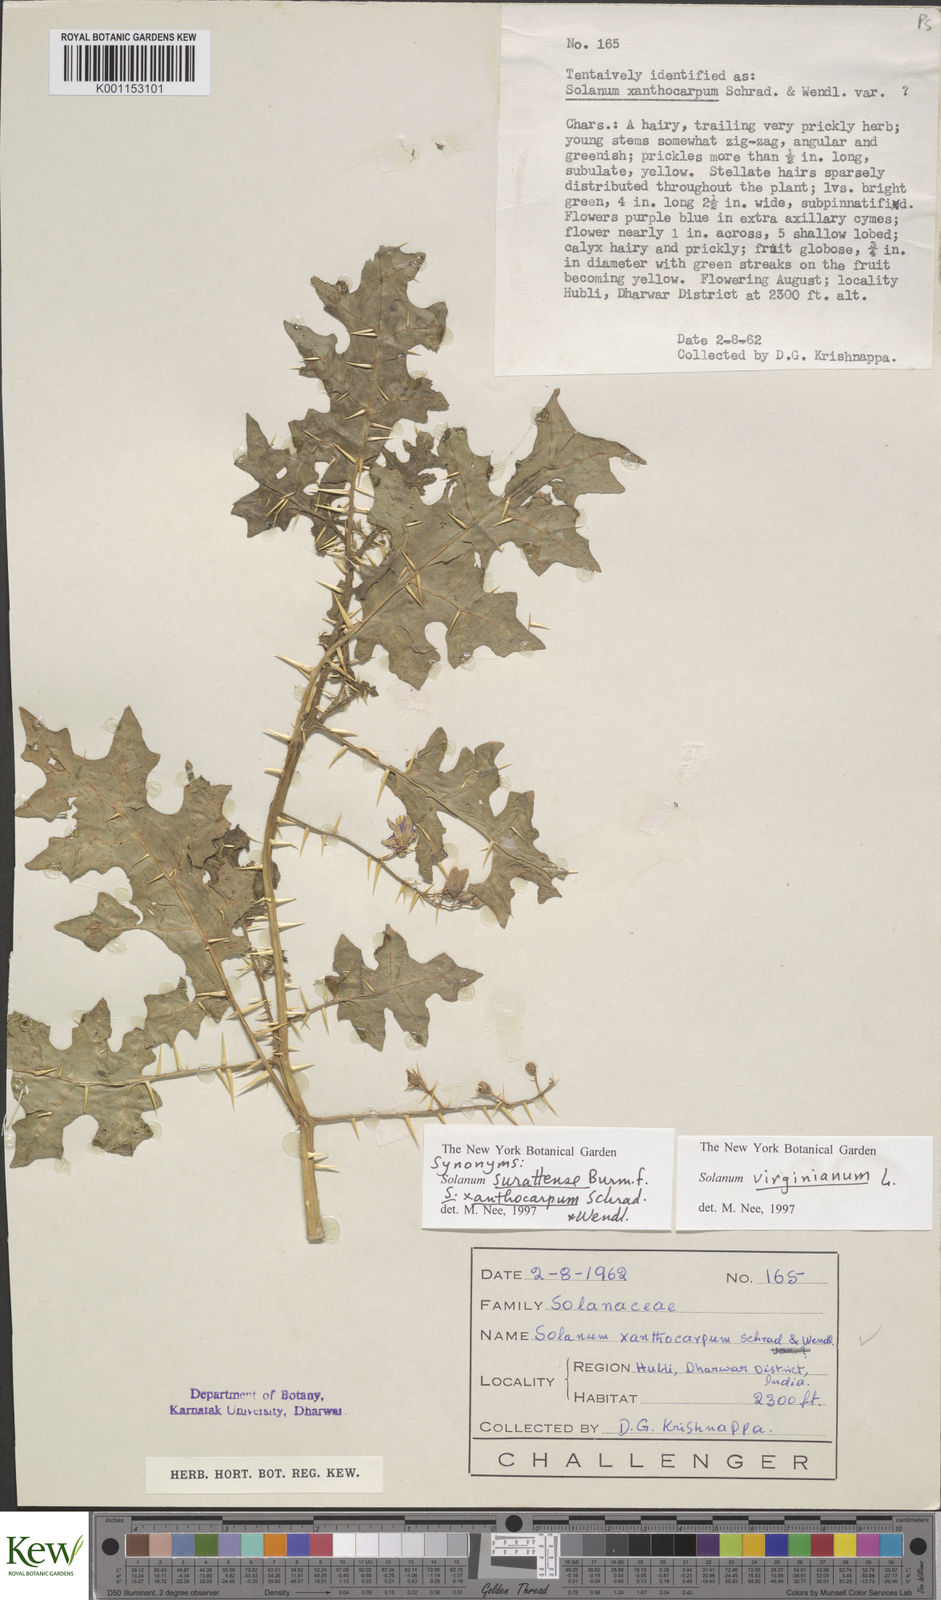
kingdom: Plantae
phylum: Tracheophyta
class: Magnoliopsida
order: Solanales
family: Solanaceae
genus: Solanum
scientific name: Solanum virginianum
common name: Surattense nightshade
